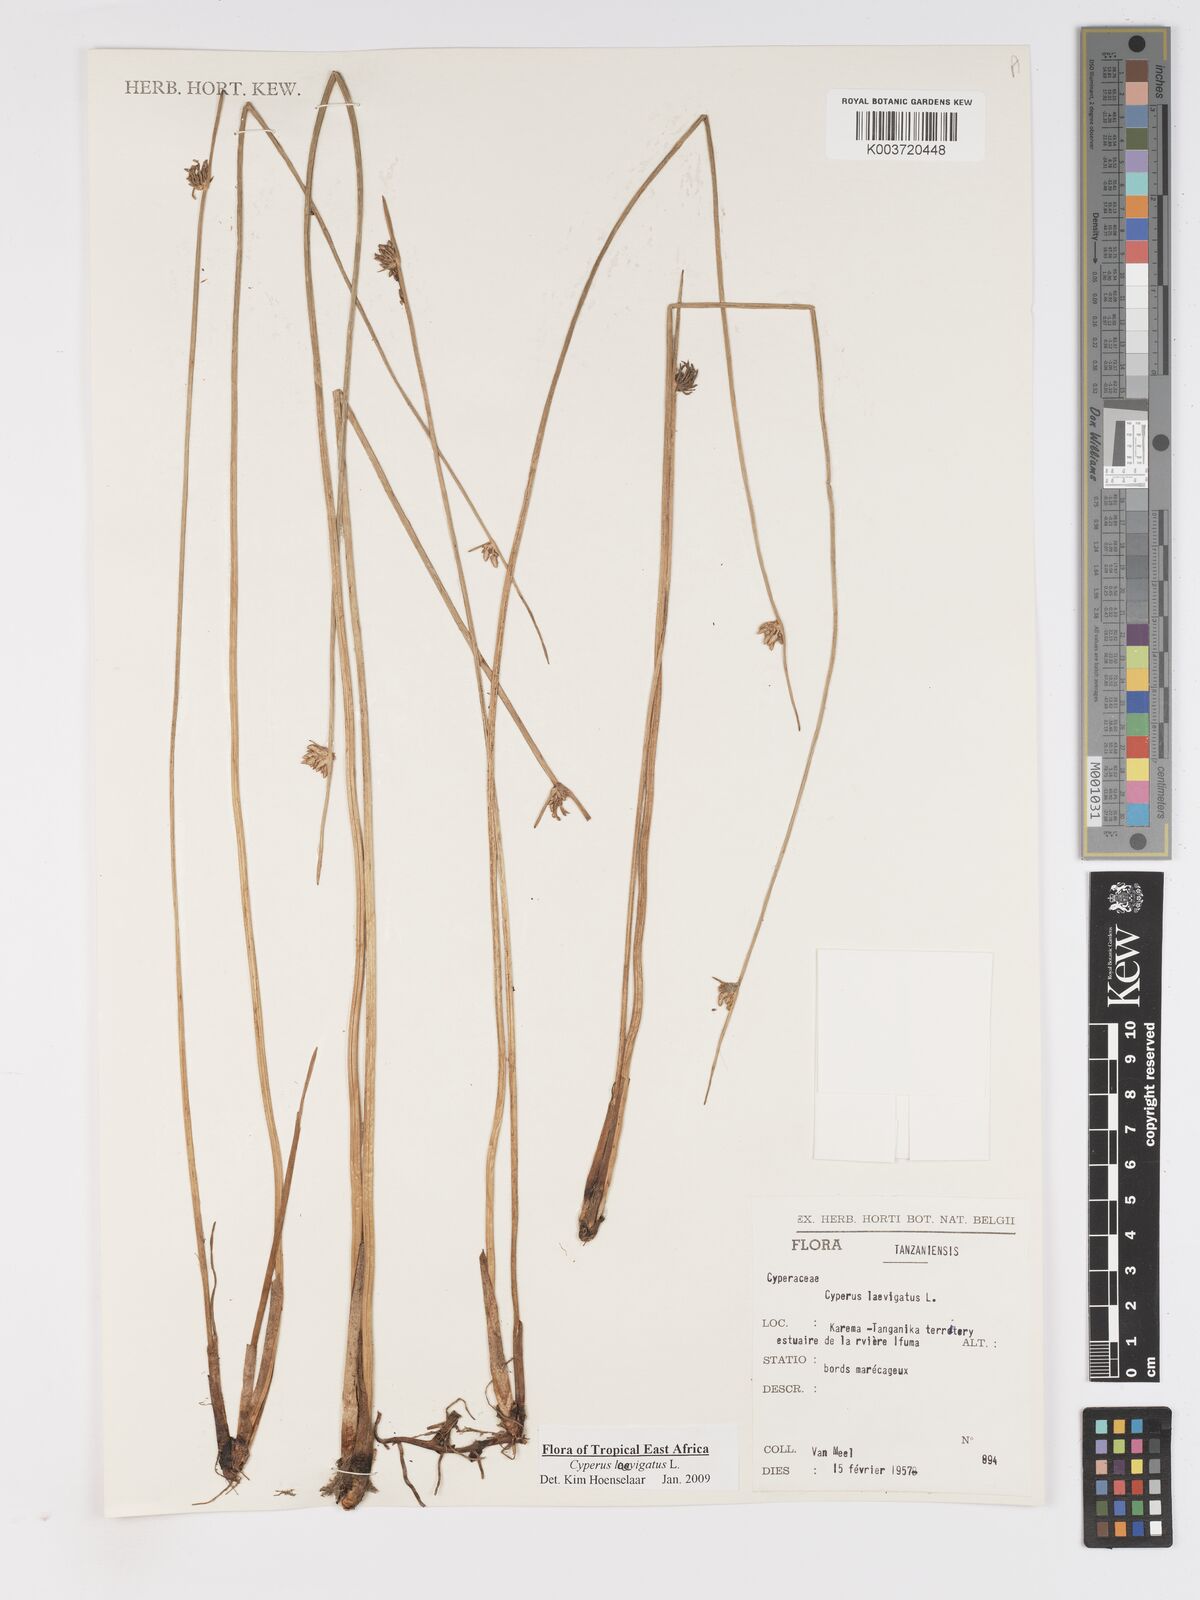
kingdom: Plantae
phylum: Tracheophyta
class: Liliopsida
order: Poales
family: Cyperaceae
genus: Cyperus
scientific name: Cyperus laevigatus
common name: Smooth flat sedge
